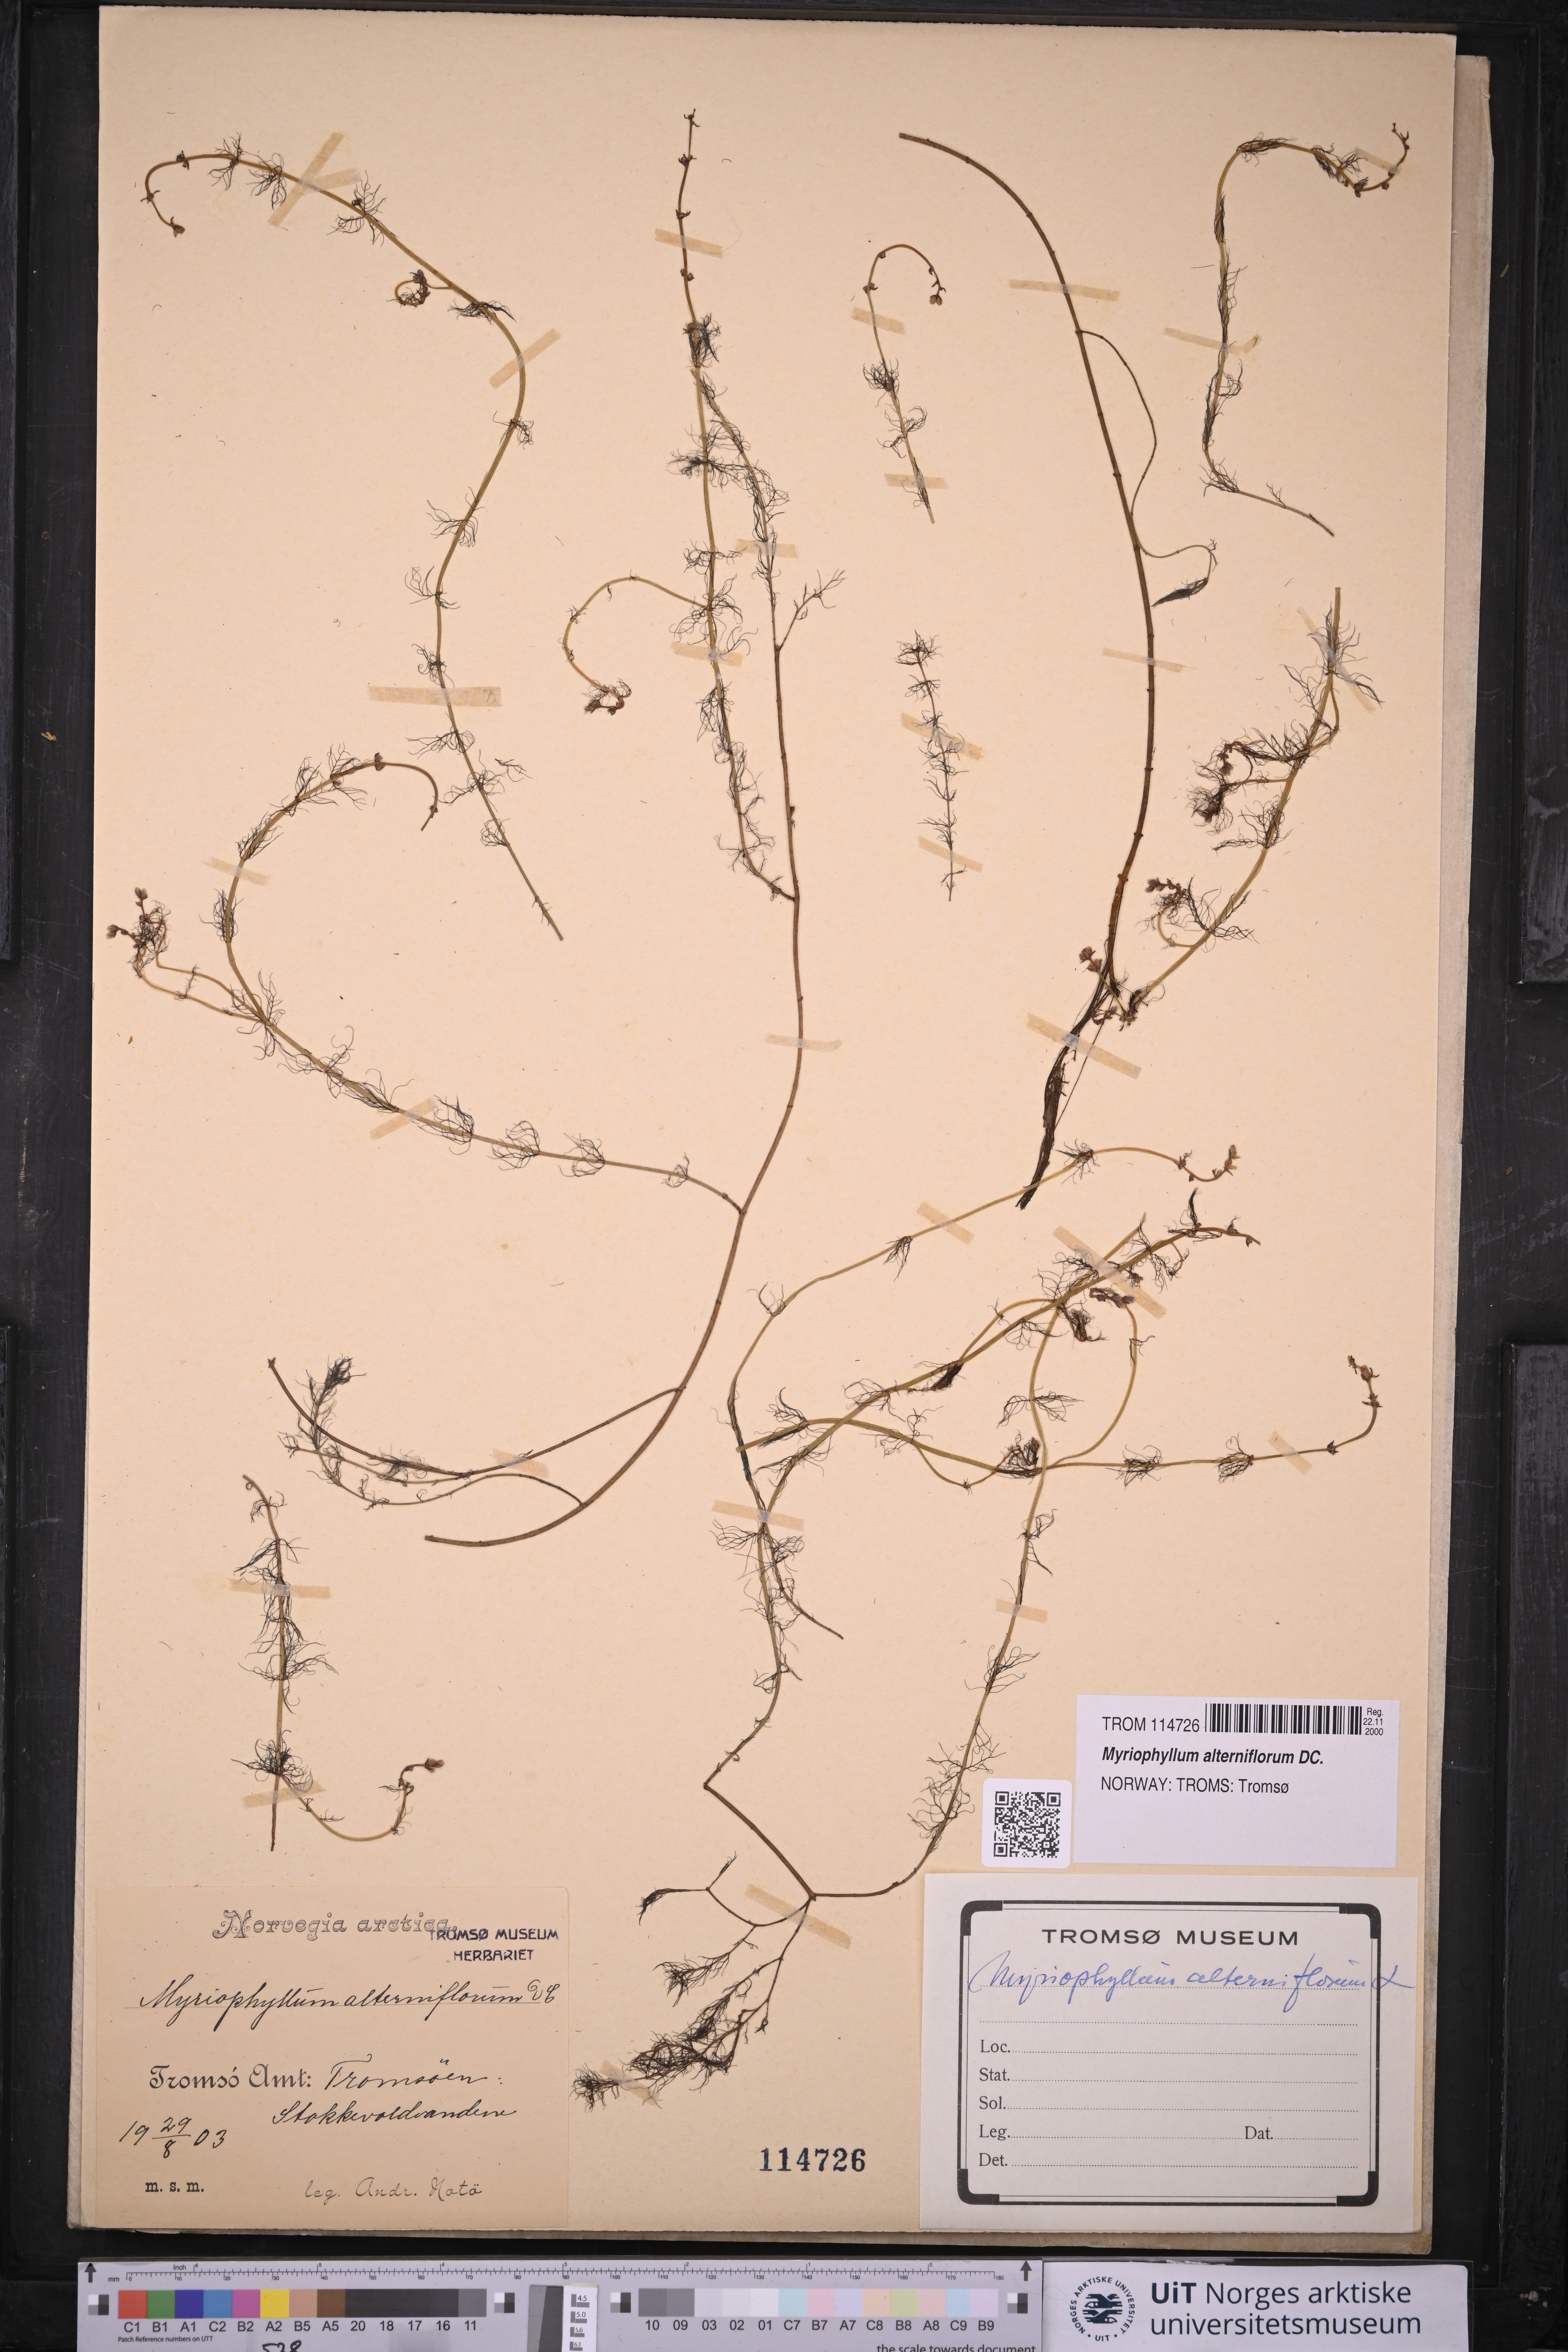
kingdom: Plantae
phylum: Tracheophyta
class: Magnoliopsida
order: Saxifragales
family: Haloragaceae
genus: Myriophyllum
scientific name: Myriophyllum alterniflorum
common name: Alternate water-milfoil
